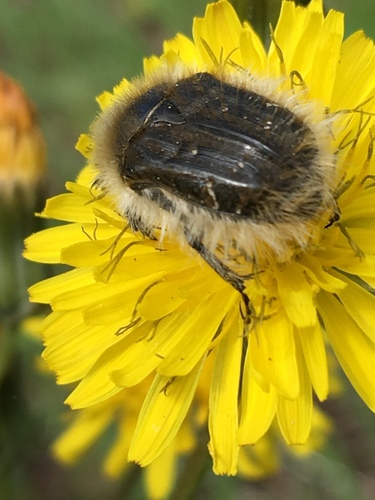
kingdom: Animalia
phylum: Arthropoda
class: Insecta
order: Coleoptera
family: Scarabaeidae
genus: Tropinota
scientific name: Tropinota squalida
